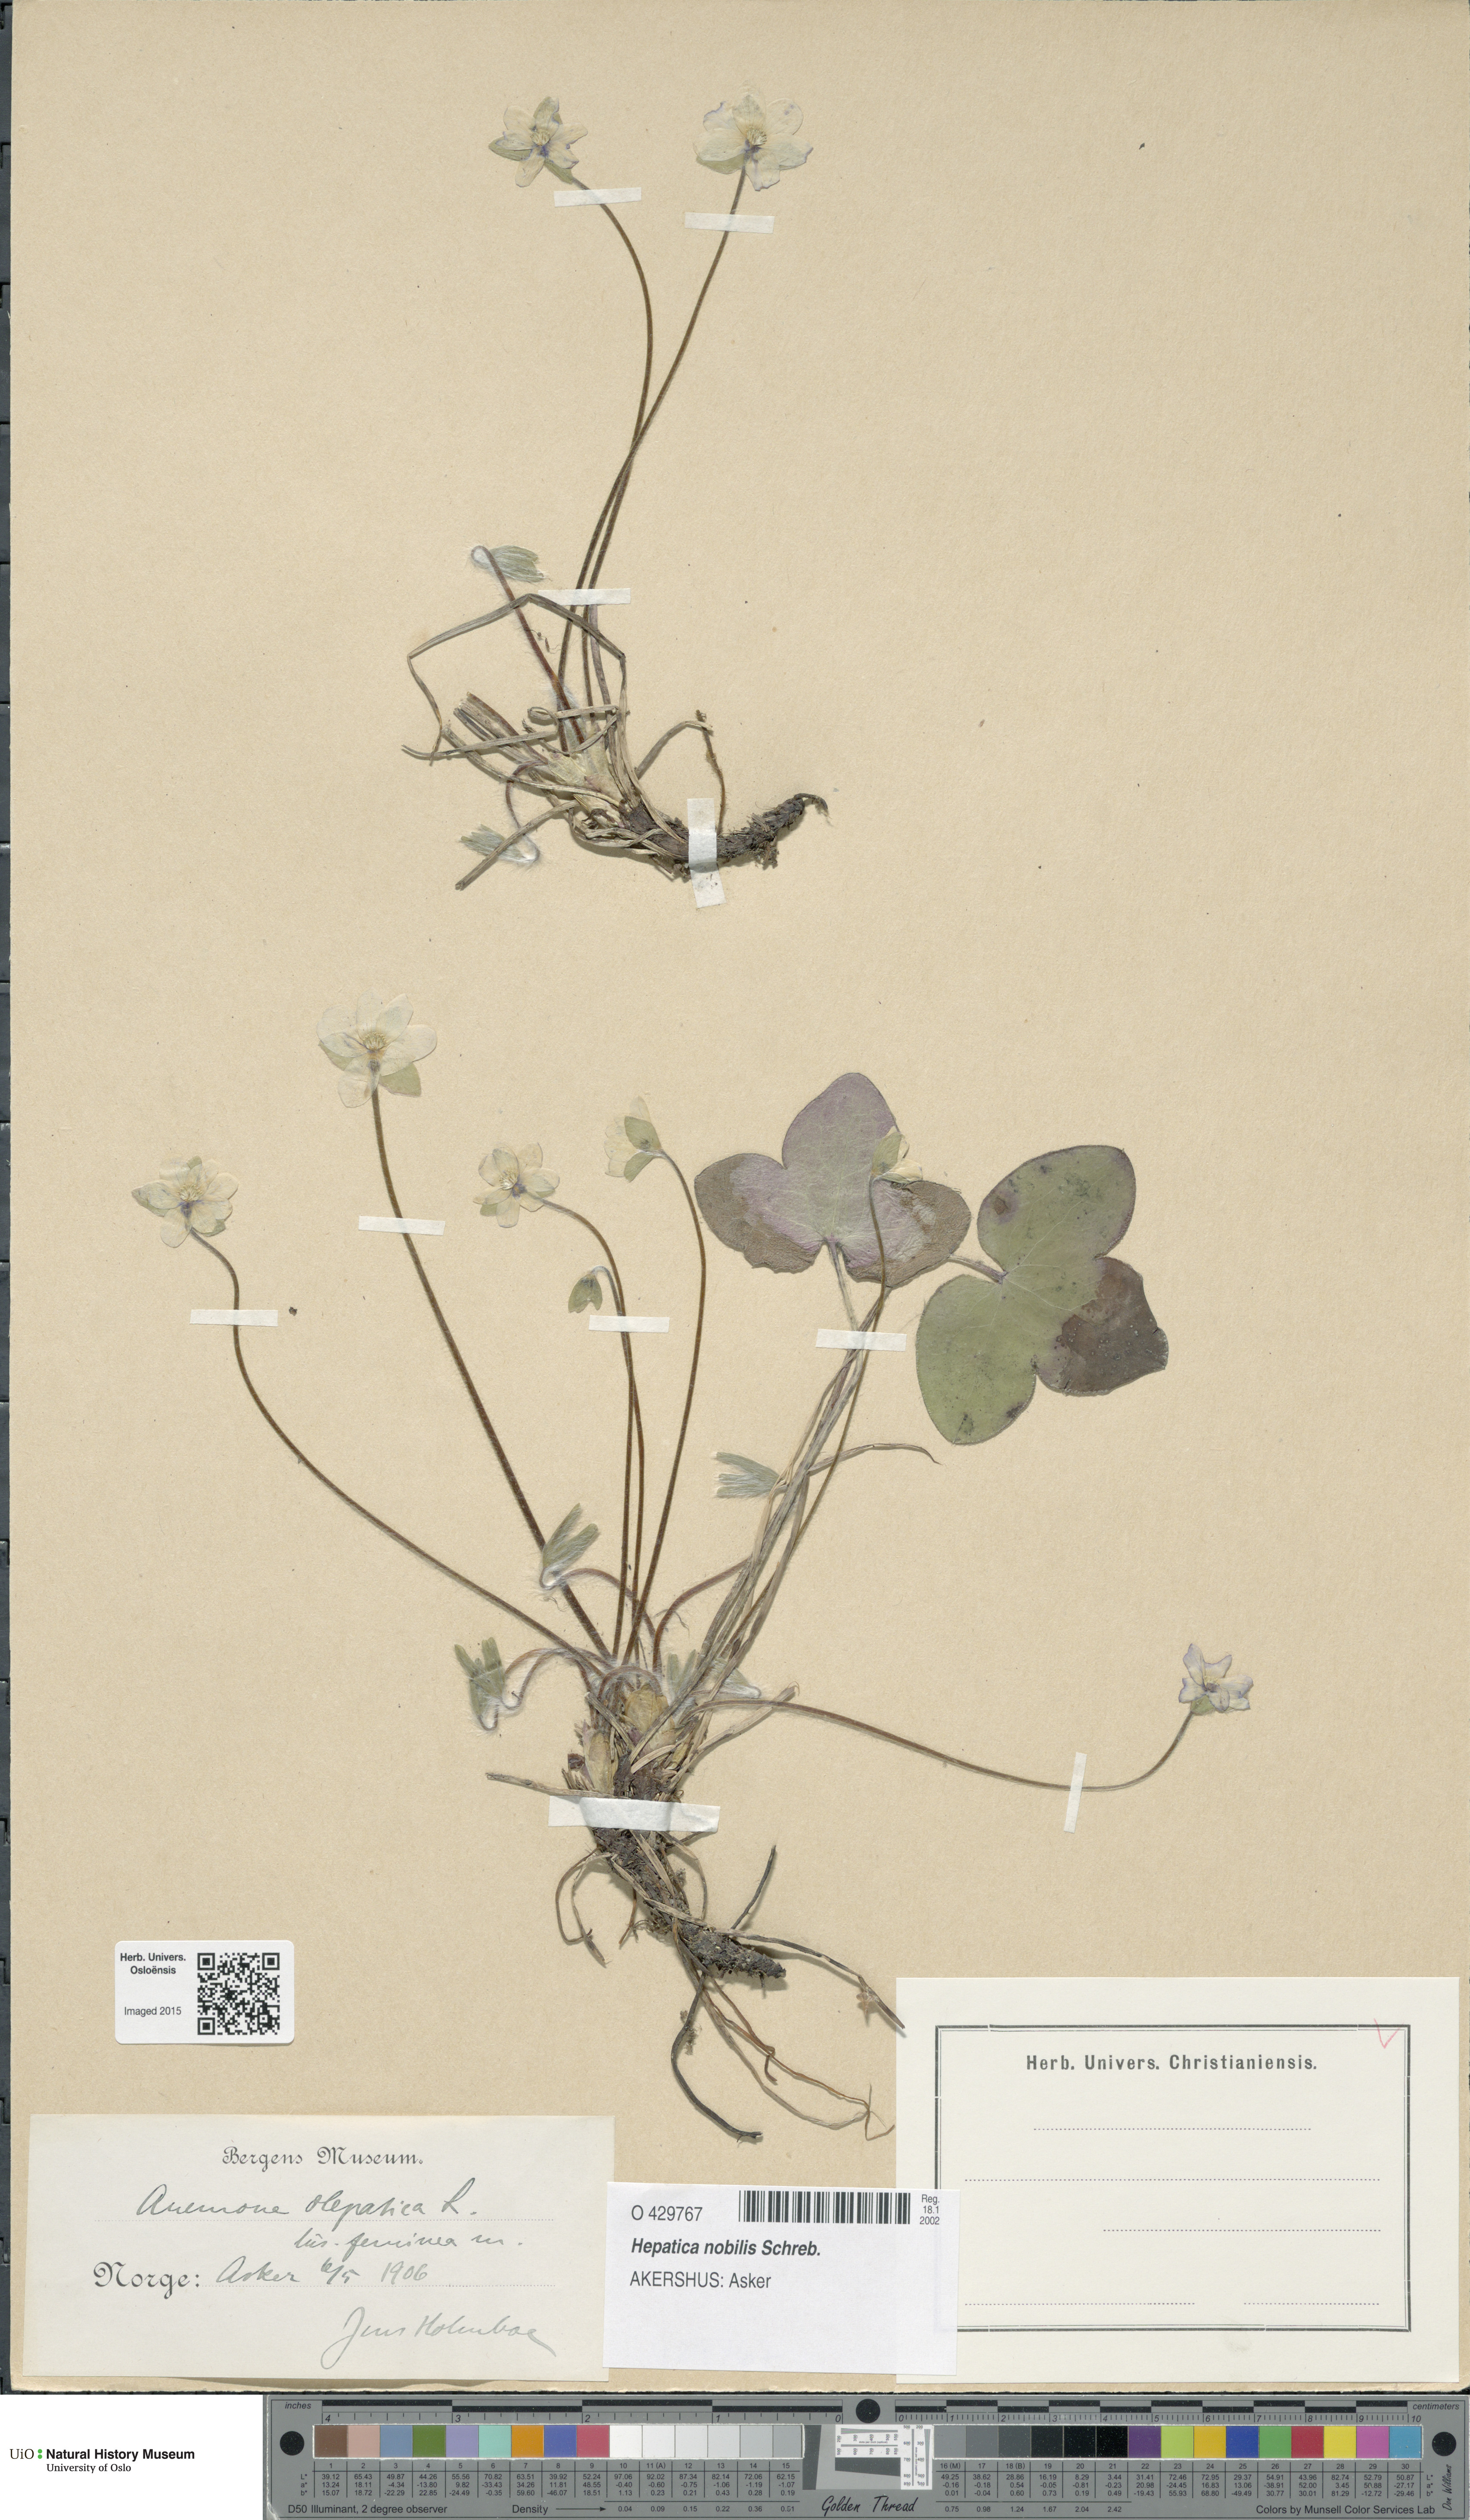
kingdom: Plantae
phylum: Tracheophyta
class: Magnoliopsida
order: Ranunculales
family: Ranunculaceae
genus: Hepatica
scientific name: Hepatica nobilis
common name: Liverleaf
